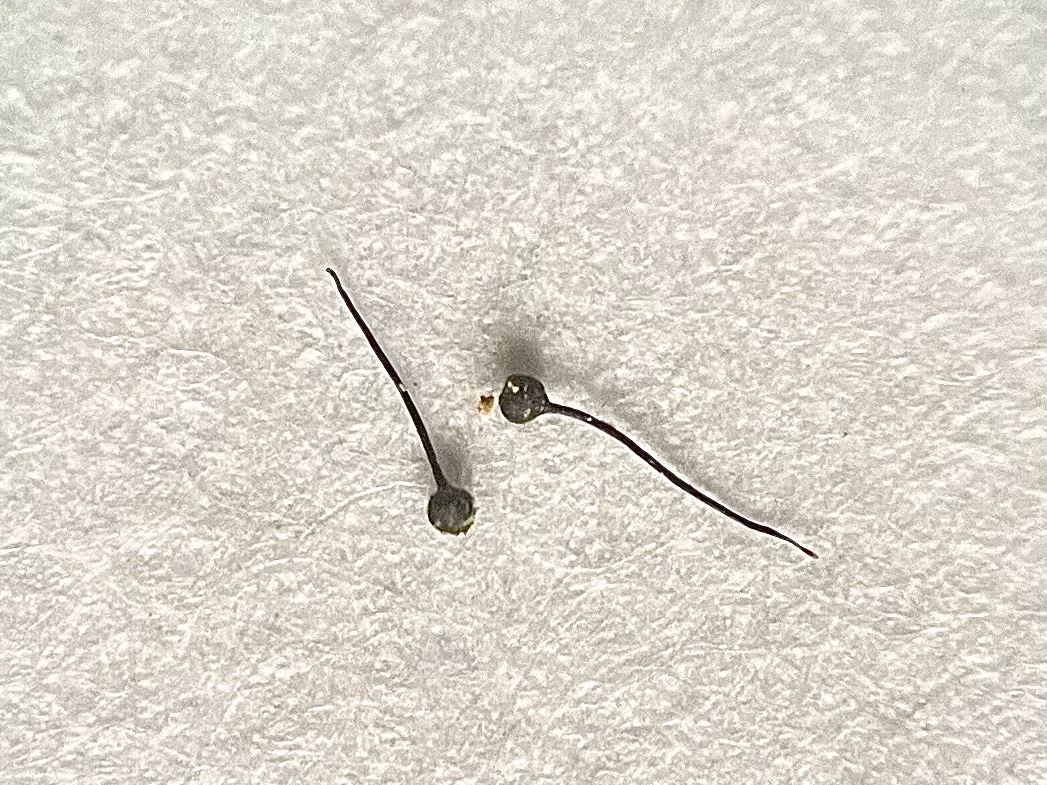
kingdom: Fungi
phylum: Ascomycota
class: Sordariomycetes
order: Ophiostomatales
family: Ophiostomataceae
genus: Sporothrix
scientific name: Sporothrix polyporicola
